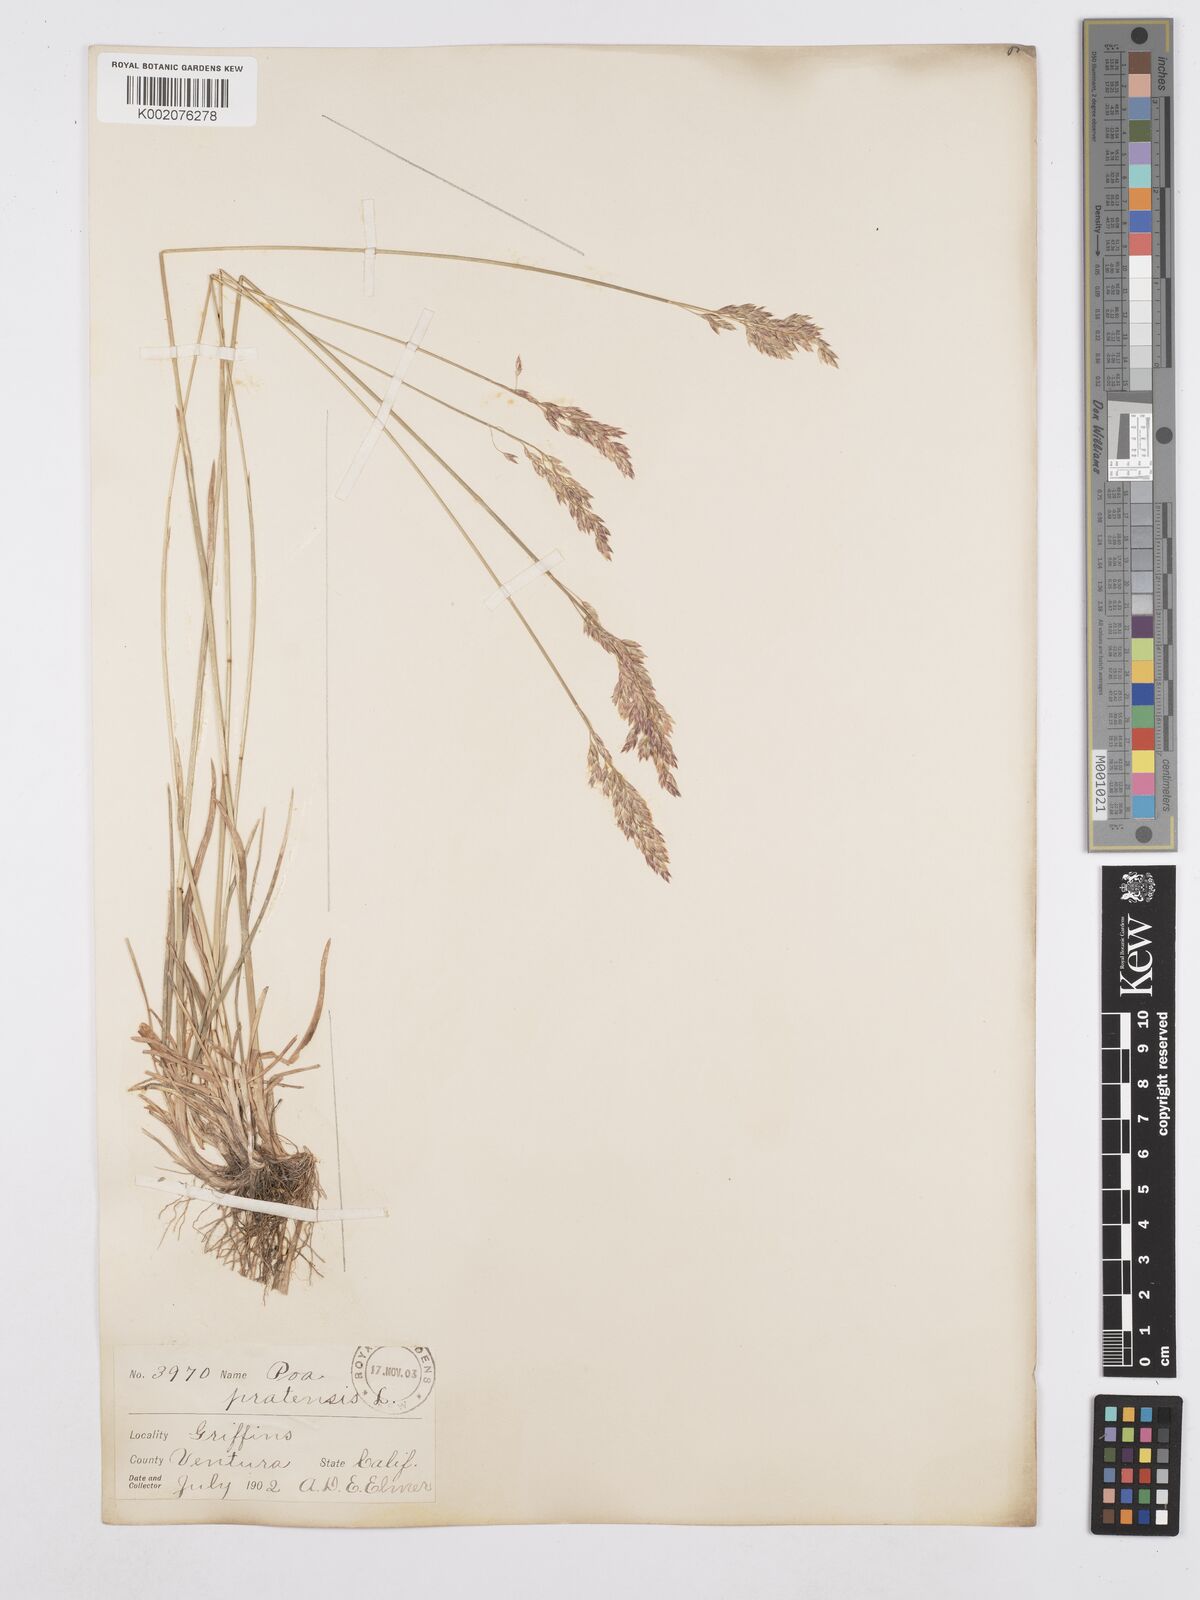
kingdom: Plantae
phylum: Tracheophyta
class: Liliopsida
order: Poales
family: Poaceae
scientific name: Poaceae
